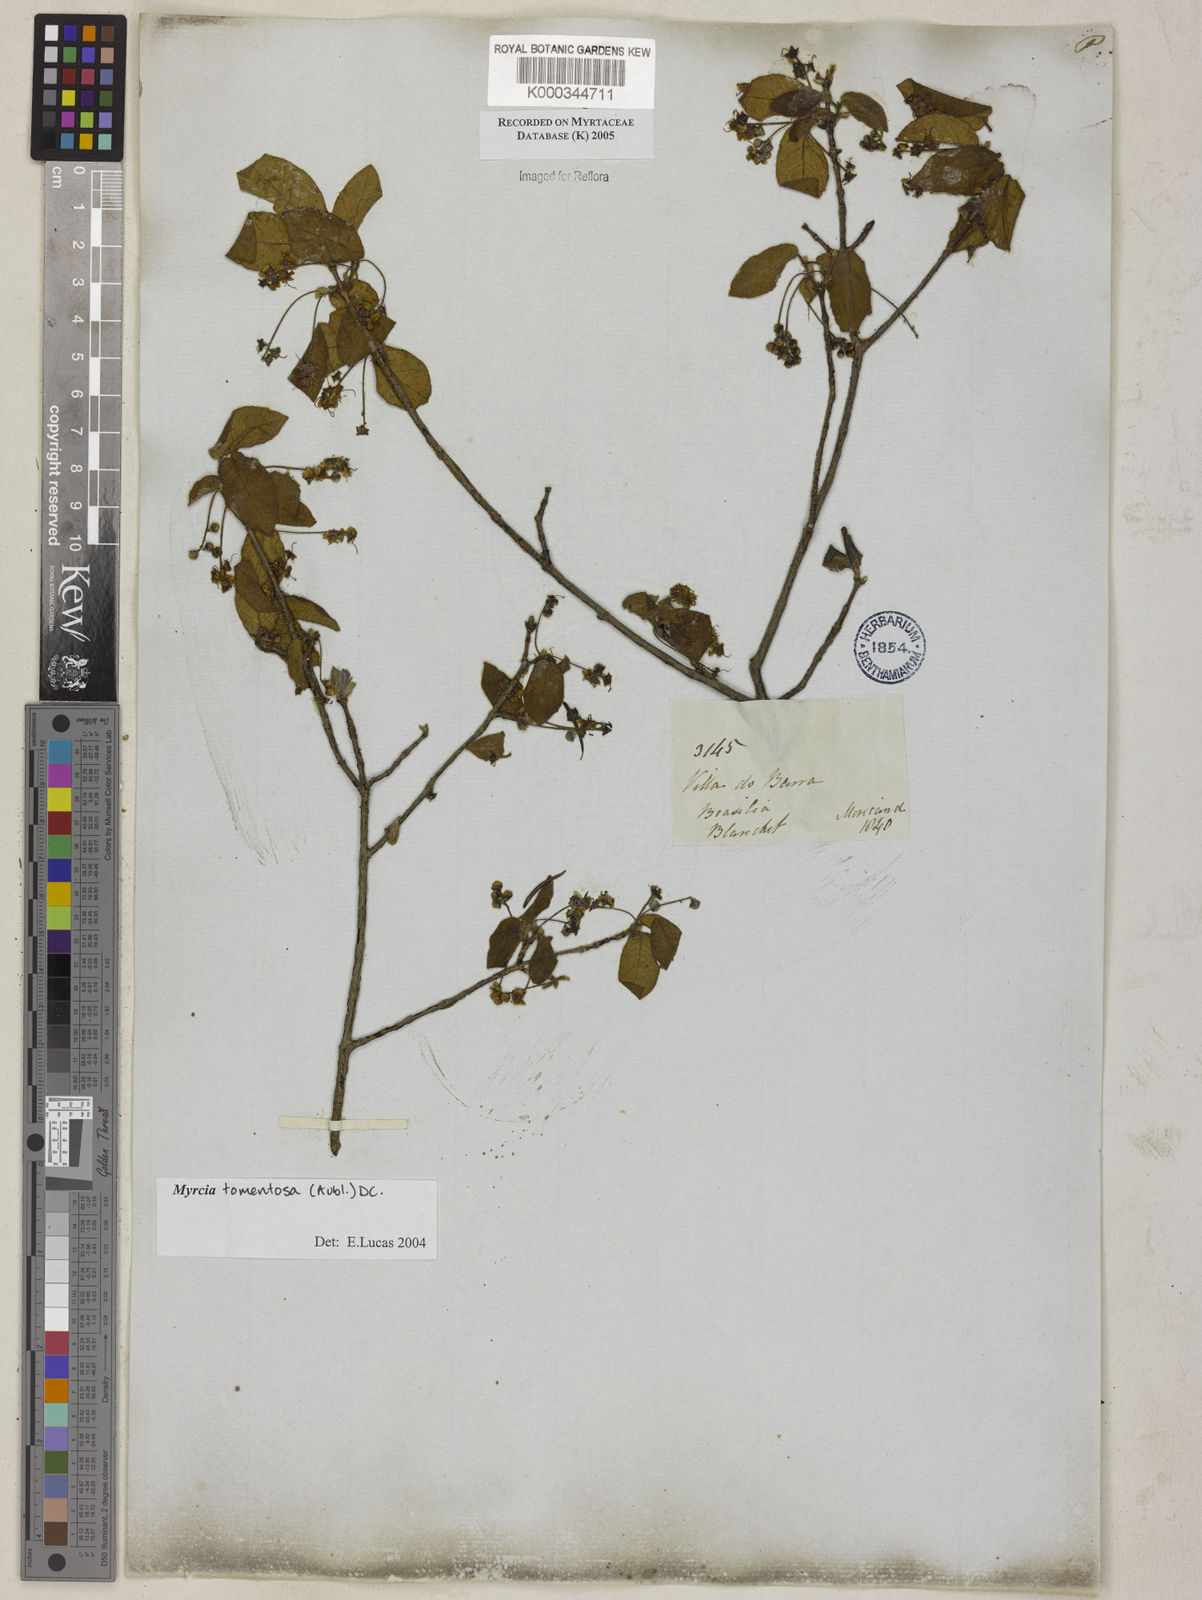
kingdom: Plantae
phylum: Tracheophyta
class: Magnoliopsida
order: Myrtales
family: Myrtaceae
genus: Myrcia
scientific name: Myrcia tomentosa
